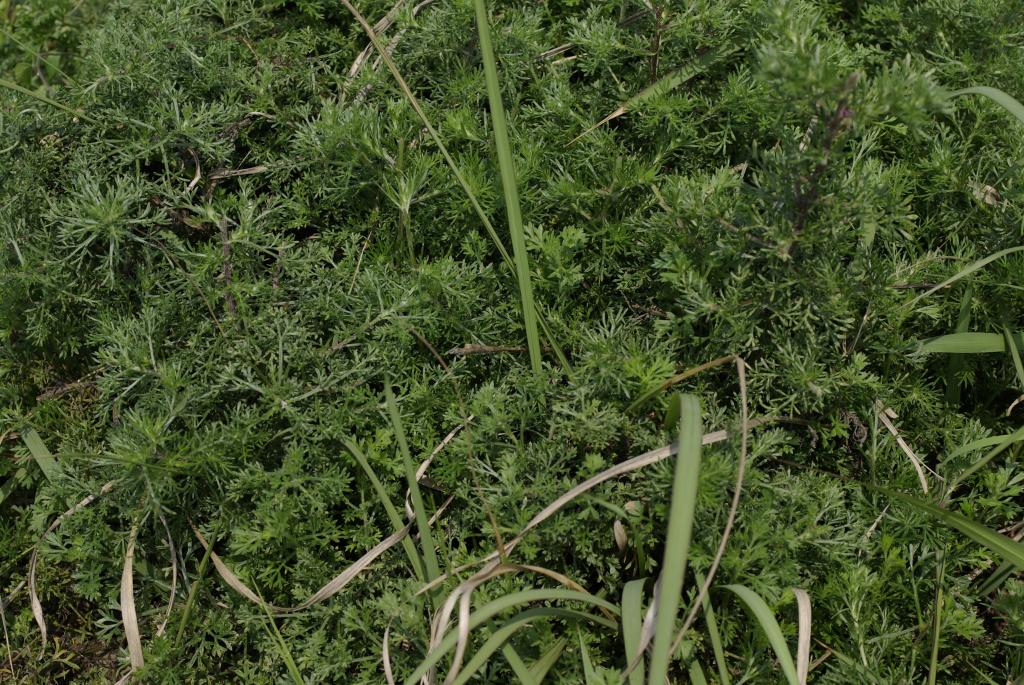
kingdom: Plantae
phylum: Tracheophyta
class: Magnoliopsida
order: Asterales
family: Asteraceae
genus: Artemisia
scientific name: Artemisia capillaris
